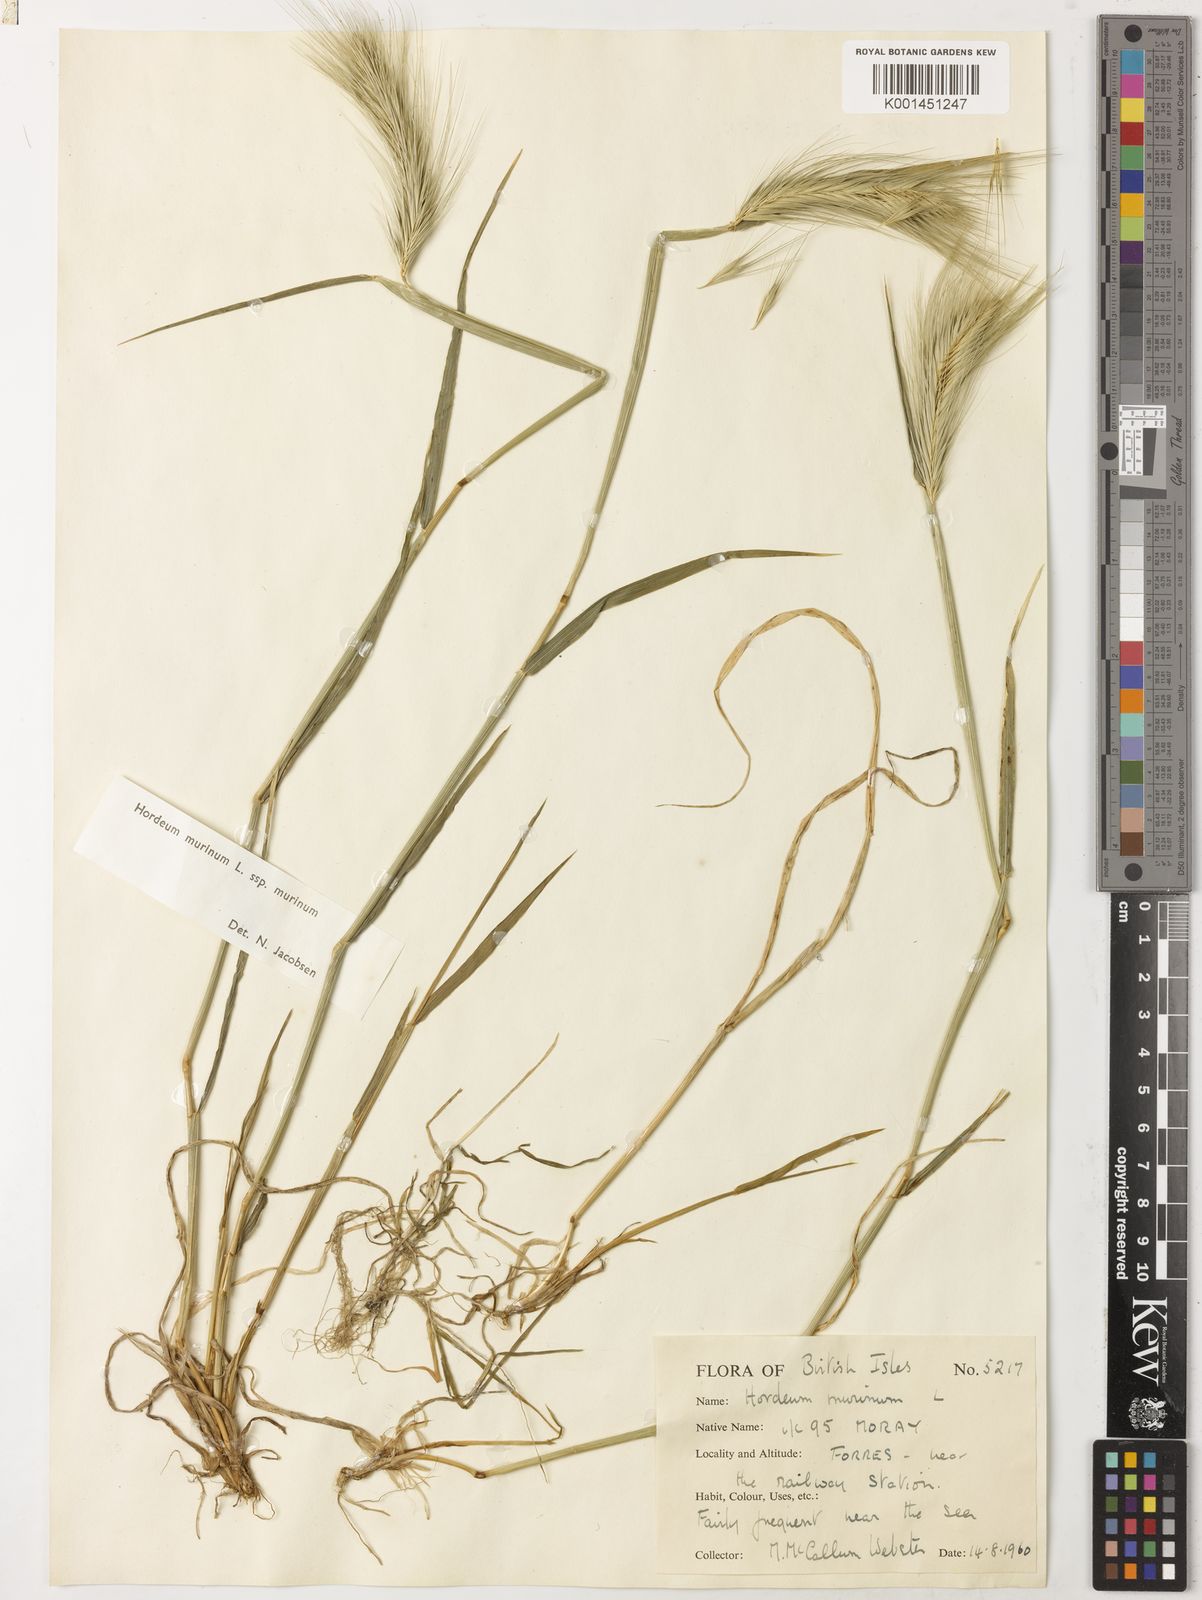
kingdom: Plantae
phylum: Tracheophyta
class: Liliopsida
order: Poales
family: Poaceae
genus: Hordeum
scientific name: Hordeum murinum
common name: Wall barley
